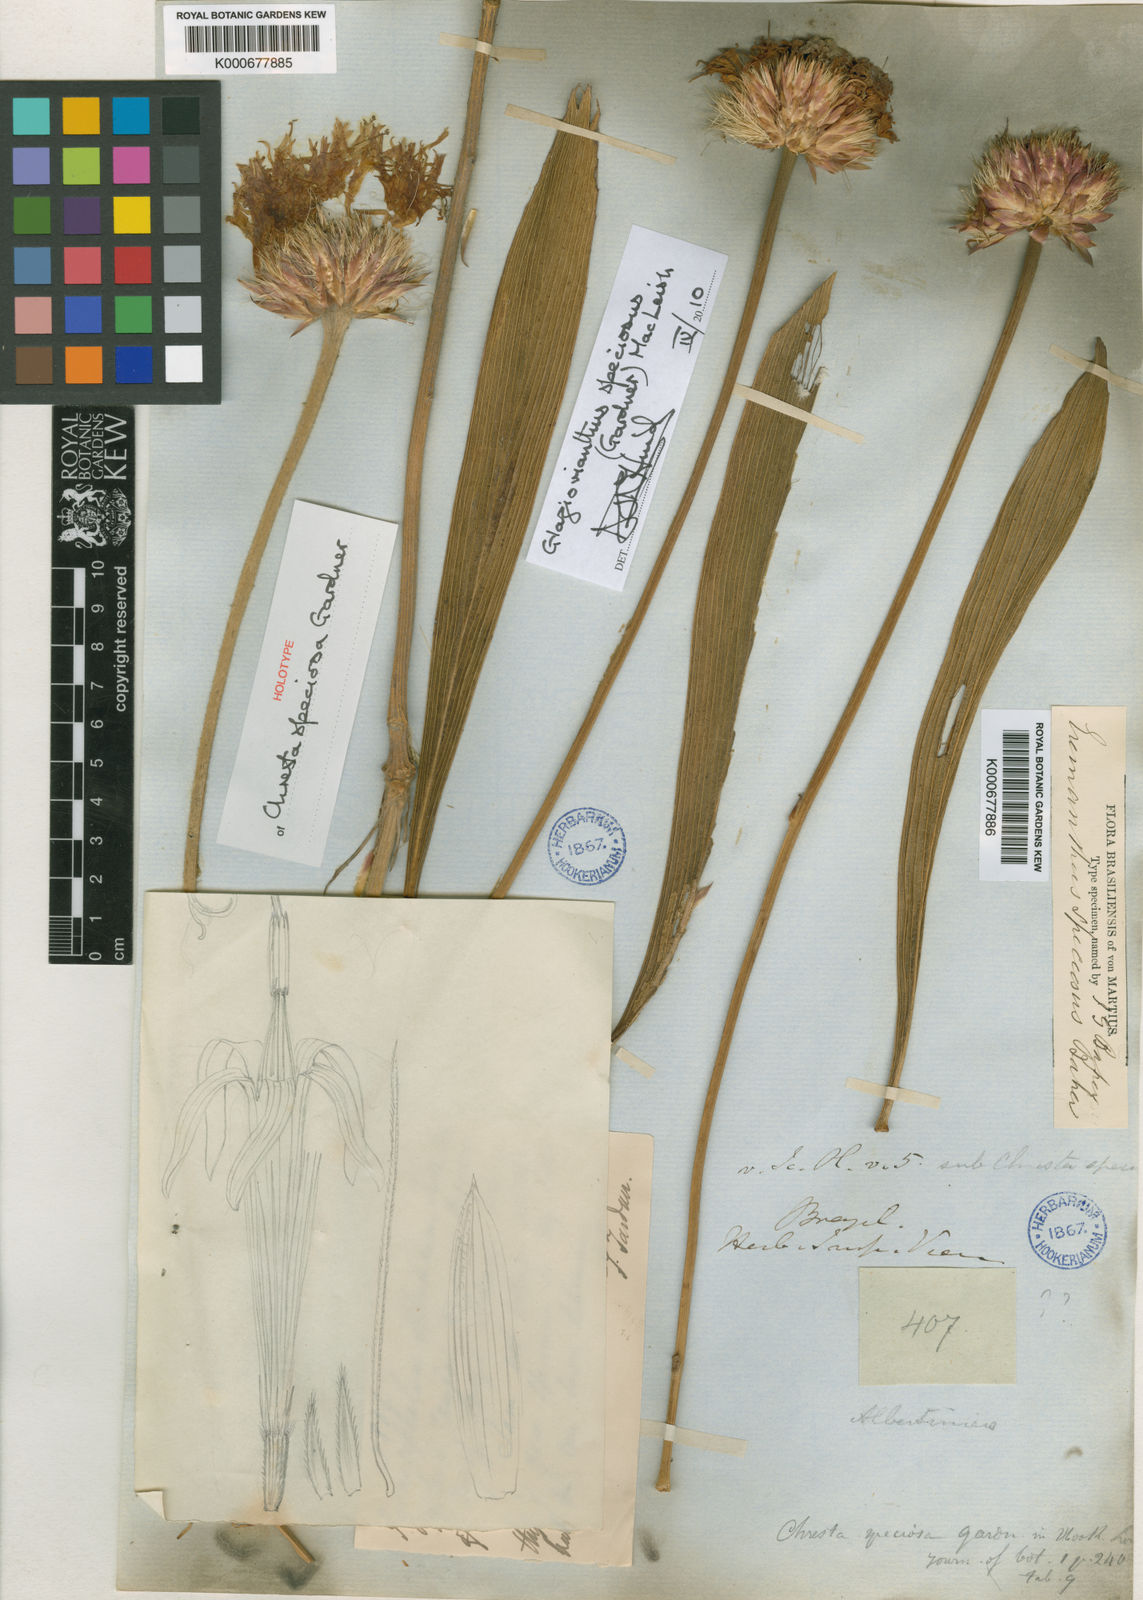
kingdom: Plantae
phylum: Tracheophyta
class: Magnoliopsida
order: Asterales
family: Asteraceae
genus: Chresta
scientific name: Chresta speciosa
